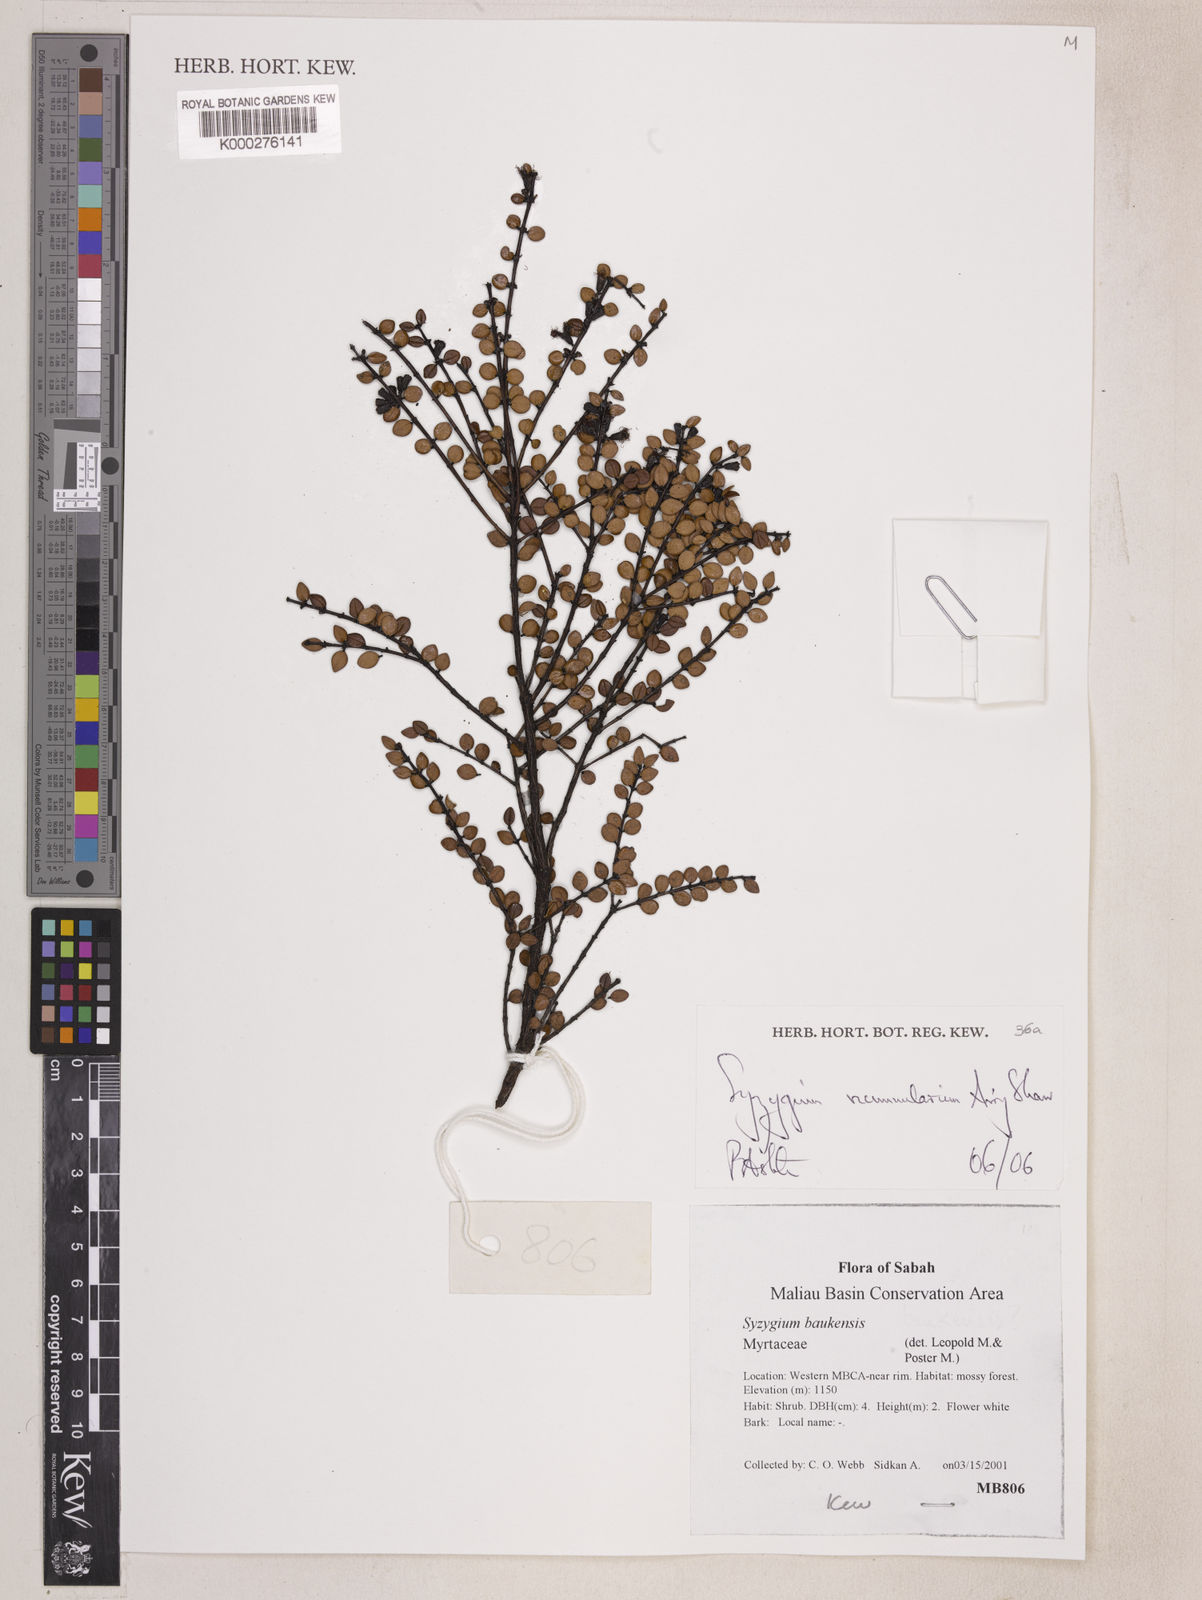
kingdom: Plantae
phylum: Tracheophyta
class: Magnoliopsida
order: Myrtales
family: Myrtaceae
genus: Syzygium
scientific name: Syzygium nummularium
